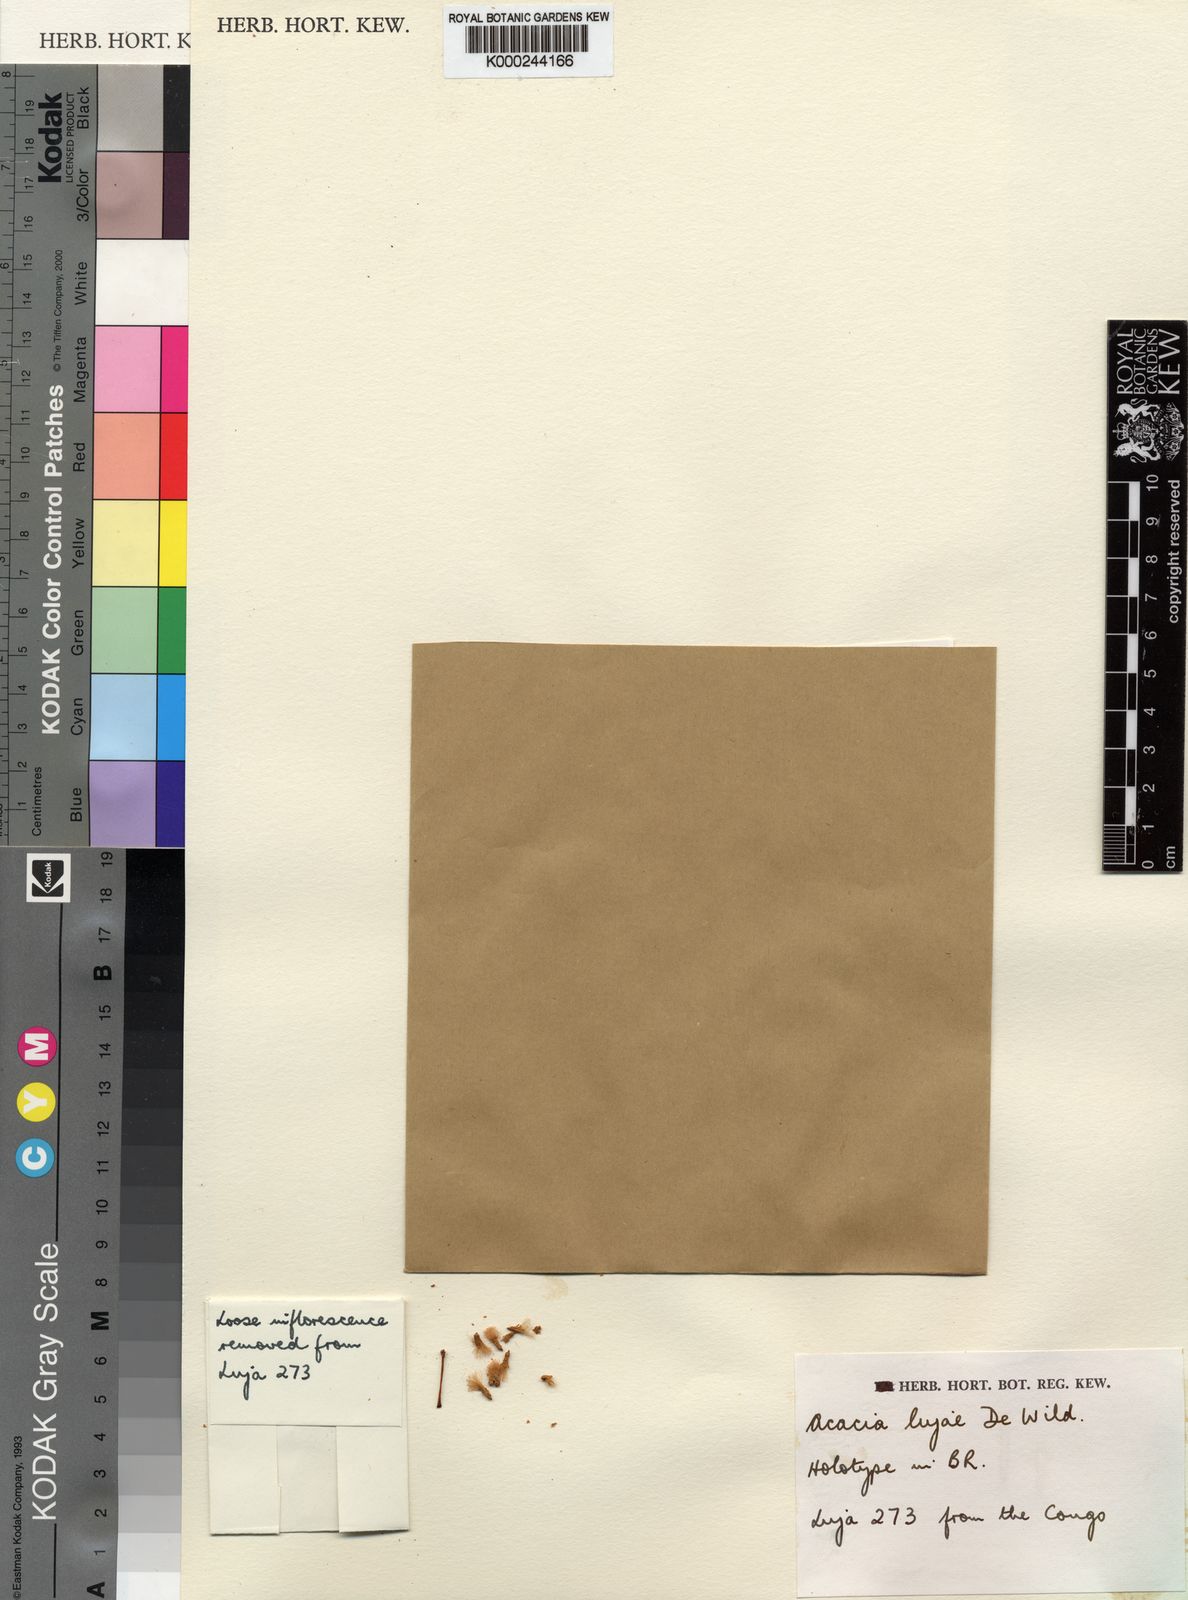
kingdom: Plantae
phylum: Tracheophyta
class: Magnoliopsida
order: Fabales
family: Fabaceae
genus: Senegalia
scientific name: Senegalia lujae
